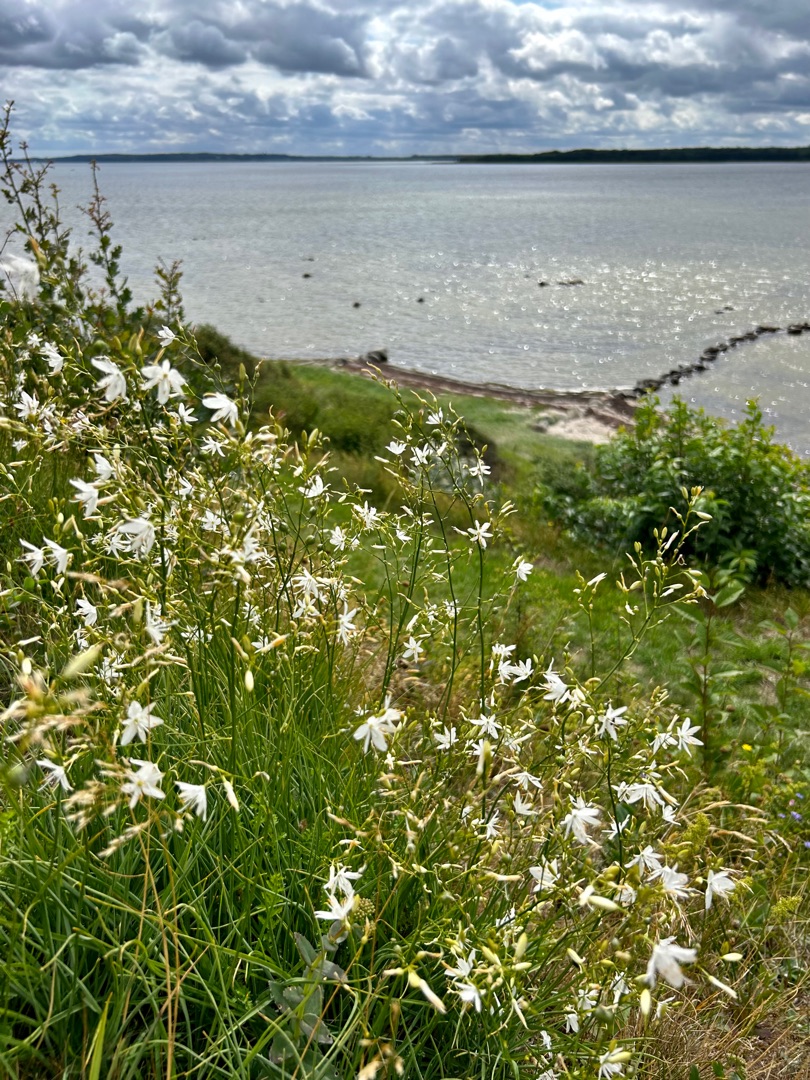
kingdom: Plantae
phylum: Tracheophyta
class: Liliopsida
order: Asparagales
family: Asparagaceae
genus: Anthericum
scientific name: Anthericum ramosum
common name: Grenet edderkopurt
